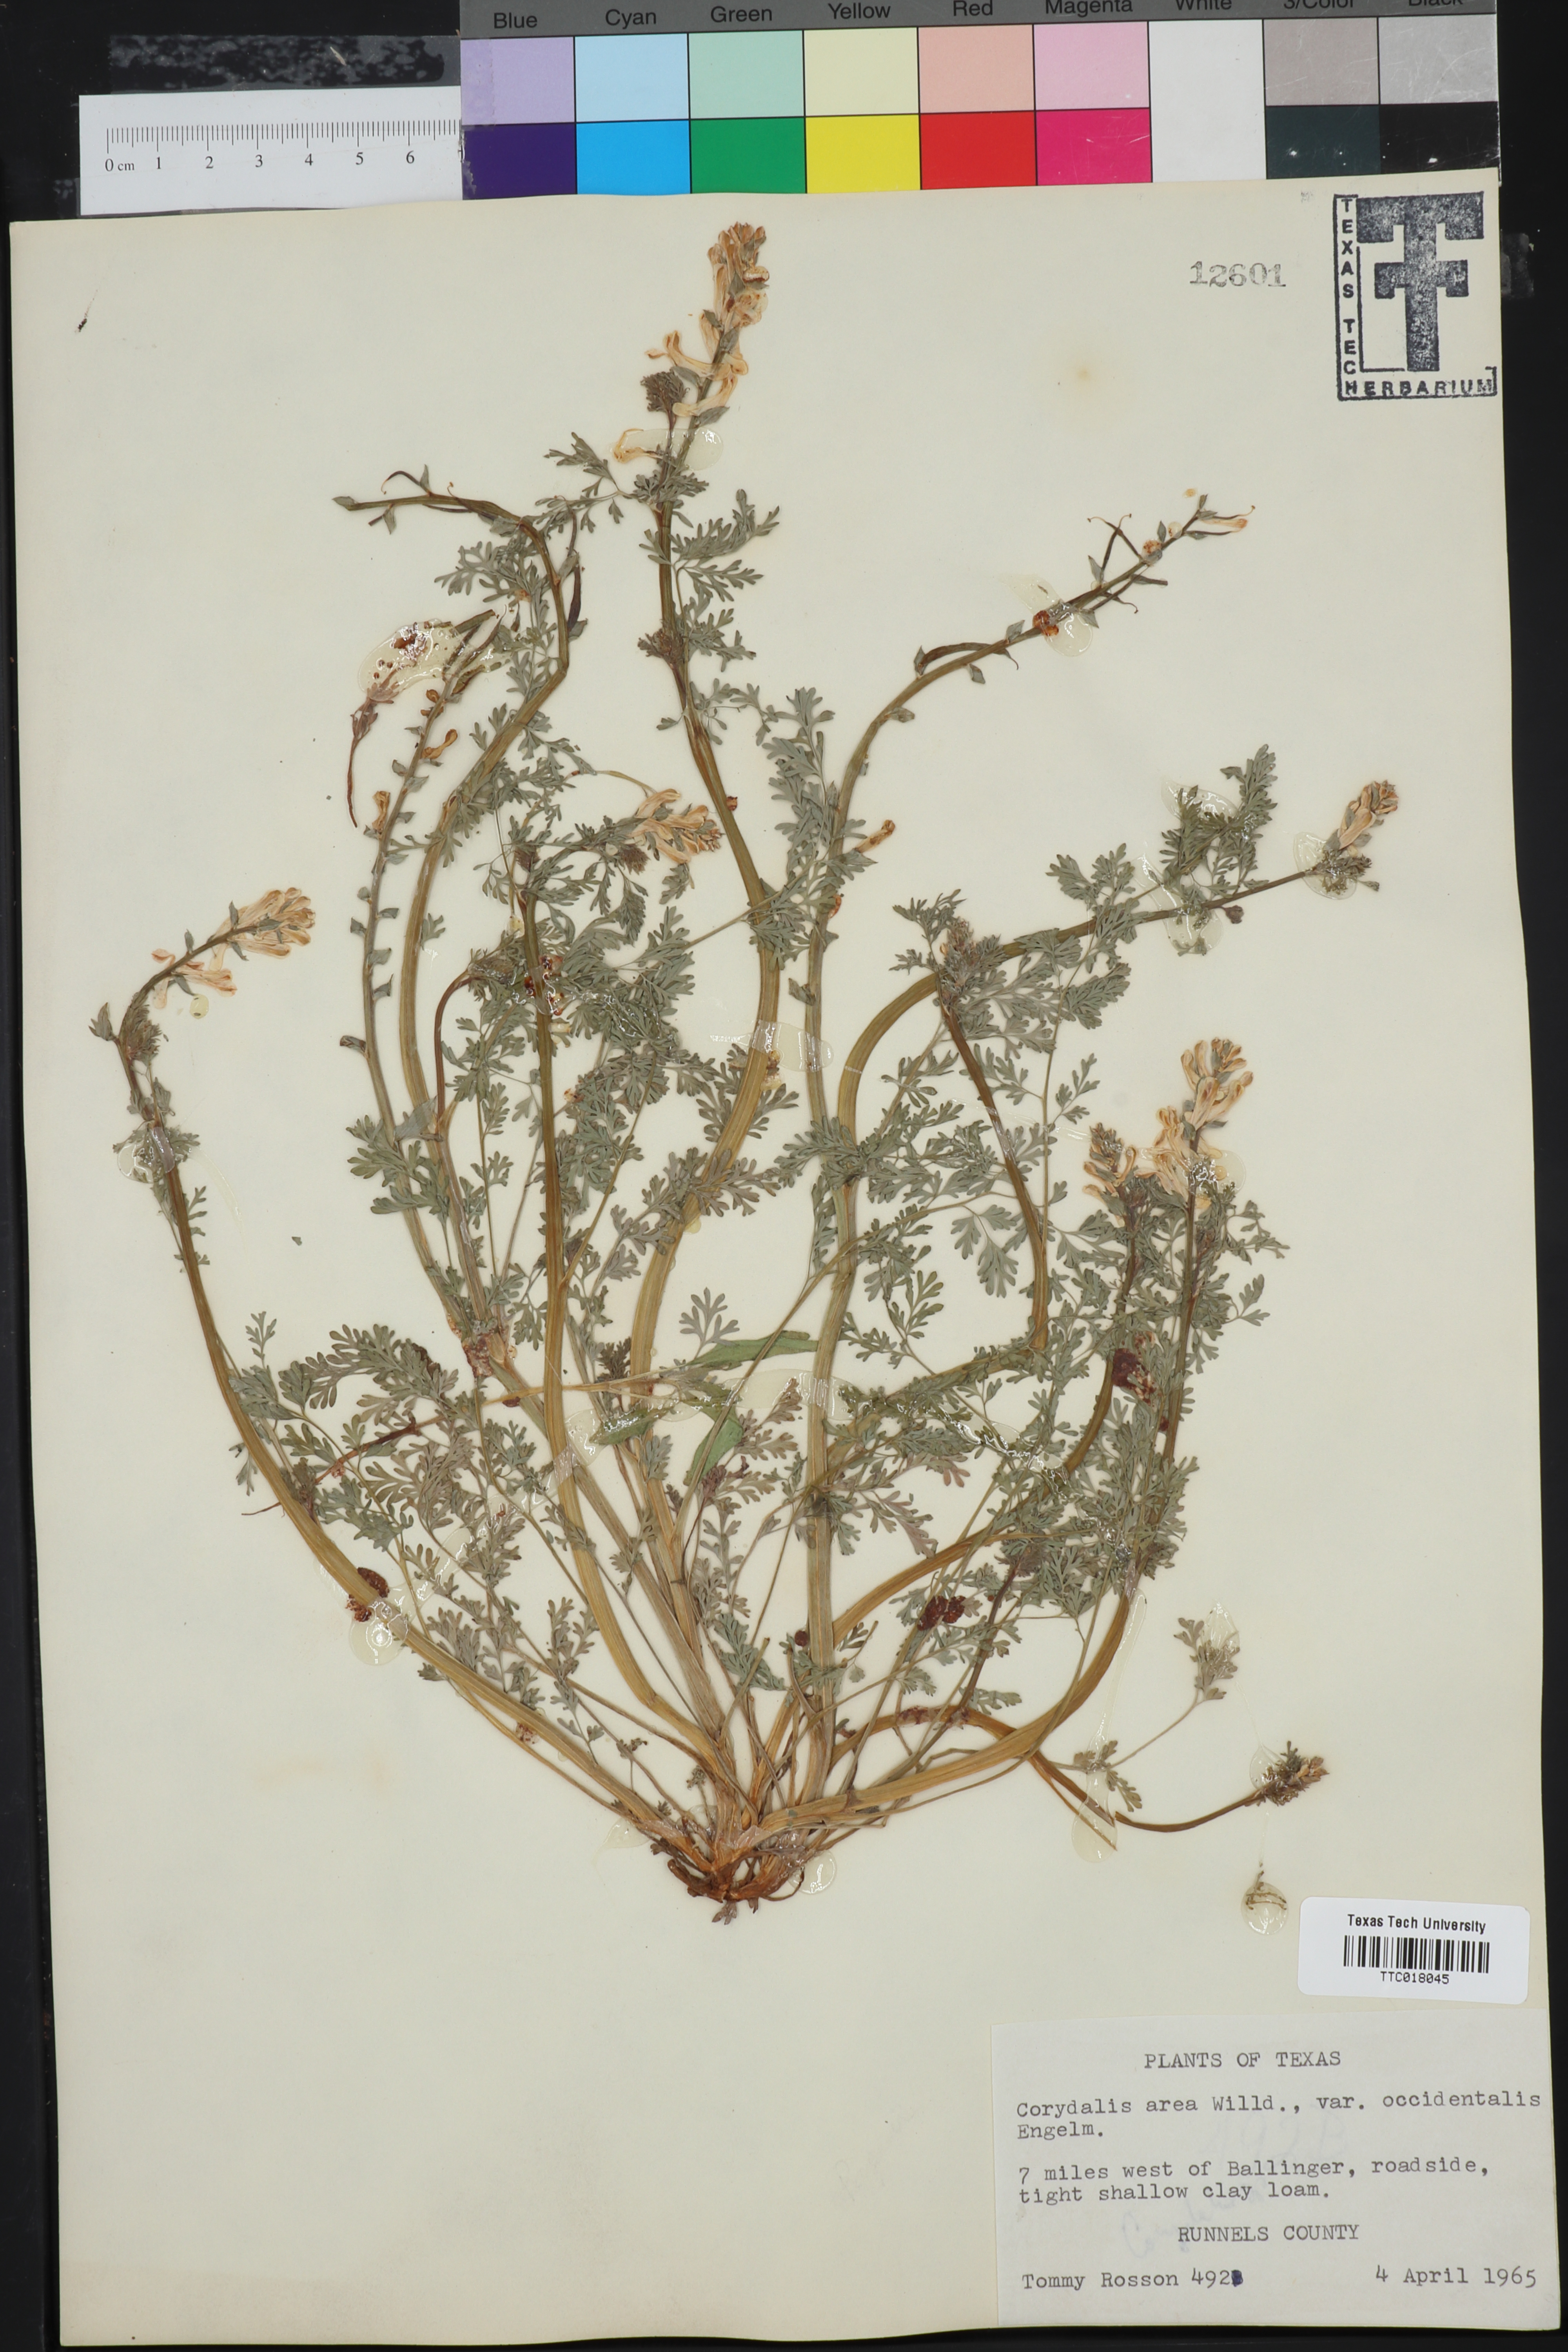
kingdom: Plantae
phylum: Tracheophyta
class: Magnoliopsida
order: Ranunculales
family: Papaveraceae
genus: Corydalis
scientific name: Corydalis curvisiliqua
